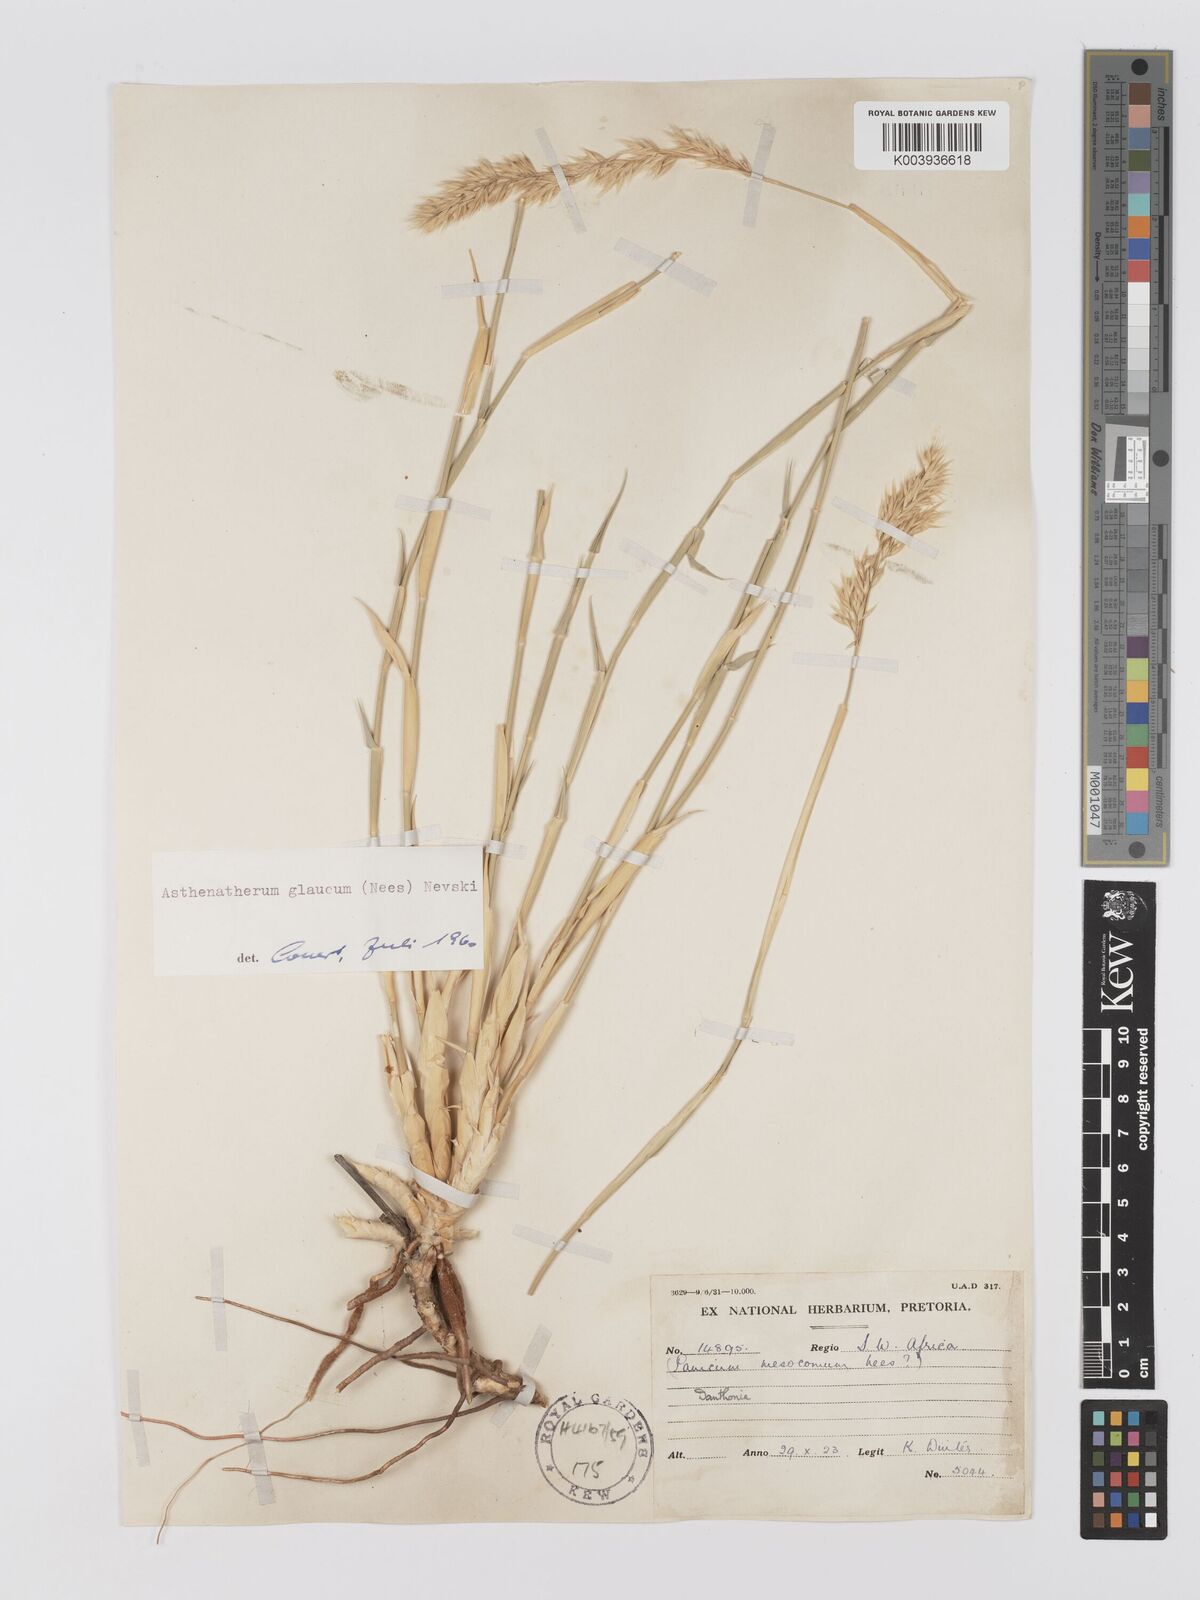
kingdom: Plantae
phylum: Tracheophyta
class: Liliopsida
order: Poales
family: Poaceae
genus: Centropodia
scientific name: Centropodia glauca
